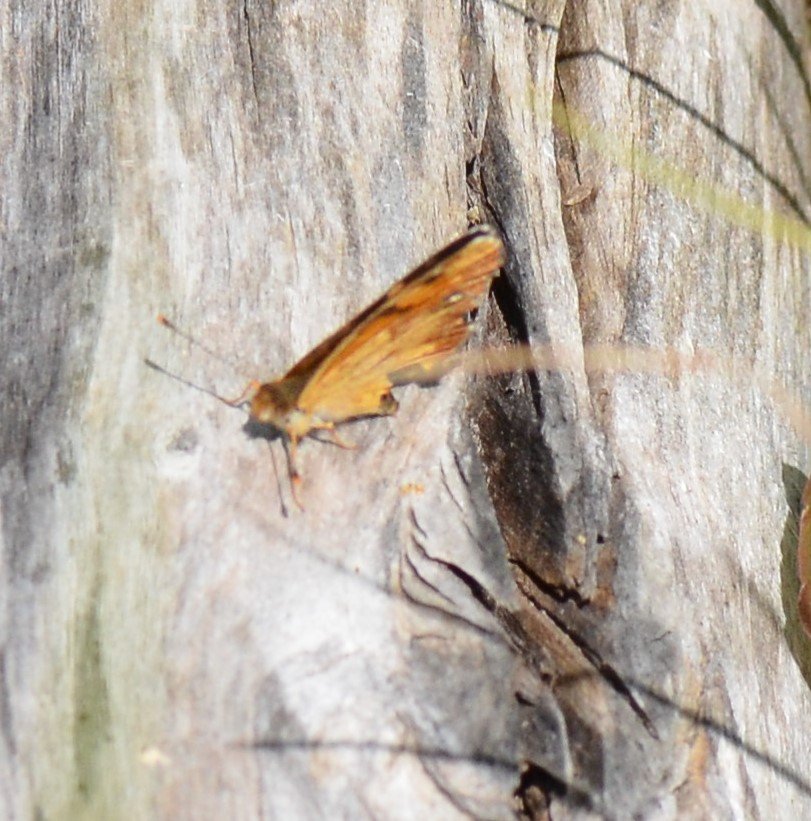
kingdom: Animalia
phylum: Arthropoda
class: Insecta
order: Lepidoptera
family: Nymphalidae
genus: Phyciodes
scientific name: Phyciodes tharos
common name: Northern Crescent
